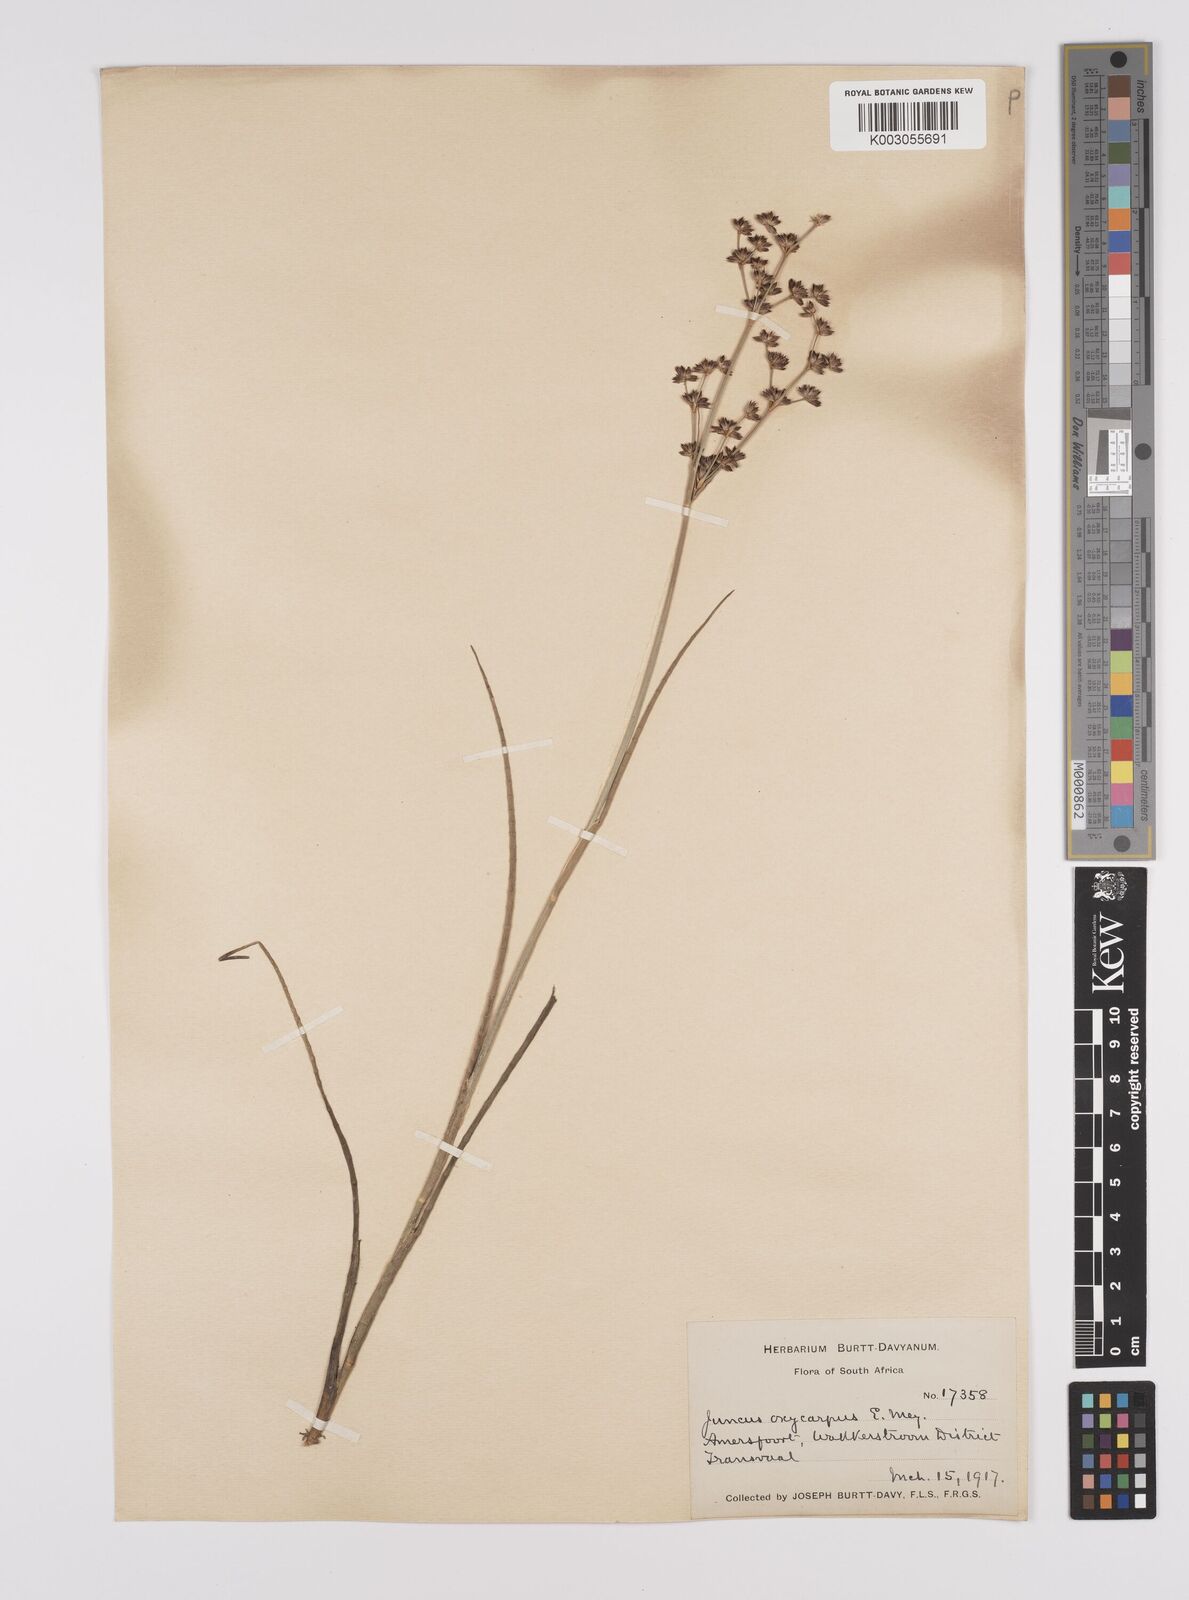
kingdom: Plantae
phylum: Tracheophyta
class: Liliopsida
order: Poales
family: Juncaceae
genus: Juncus
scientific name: Juncus oxycarpus
